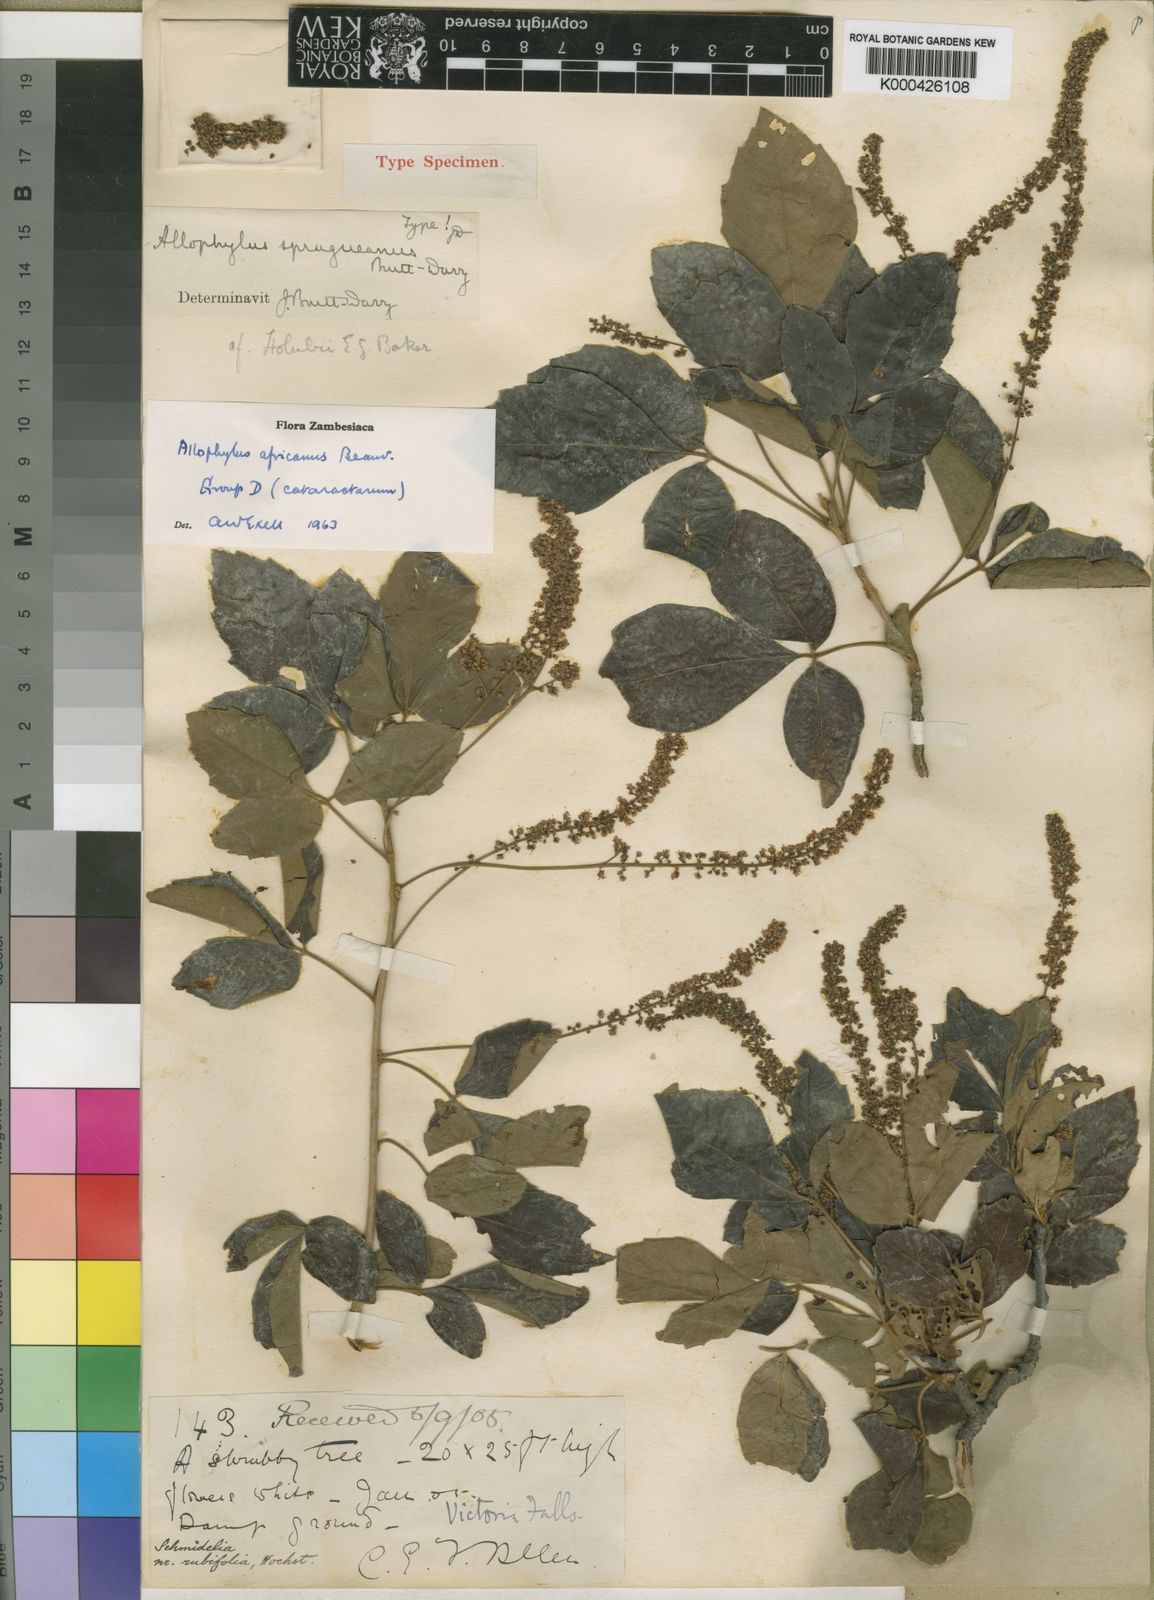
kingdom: Plantae
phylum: Tracheophyta
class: Magnoliopsida
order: Sapindales
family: Sapindaceae
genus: Allophylus
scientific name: Allophylus africanus
